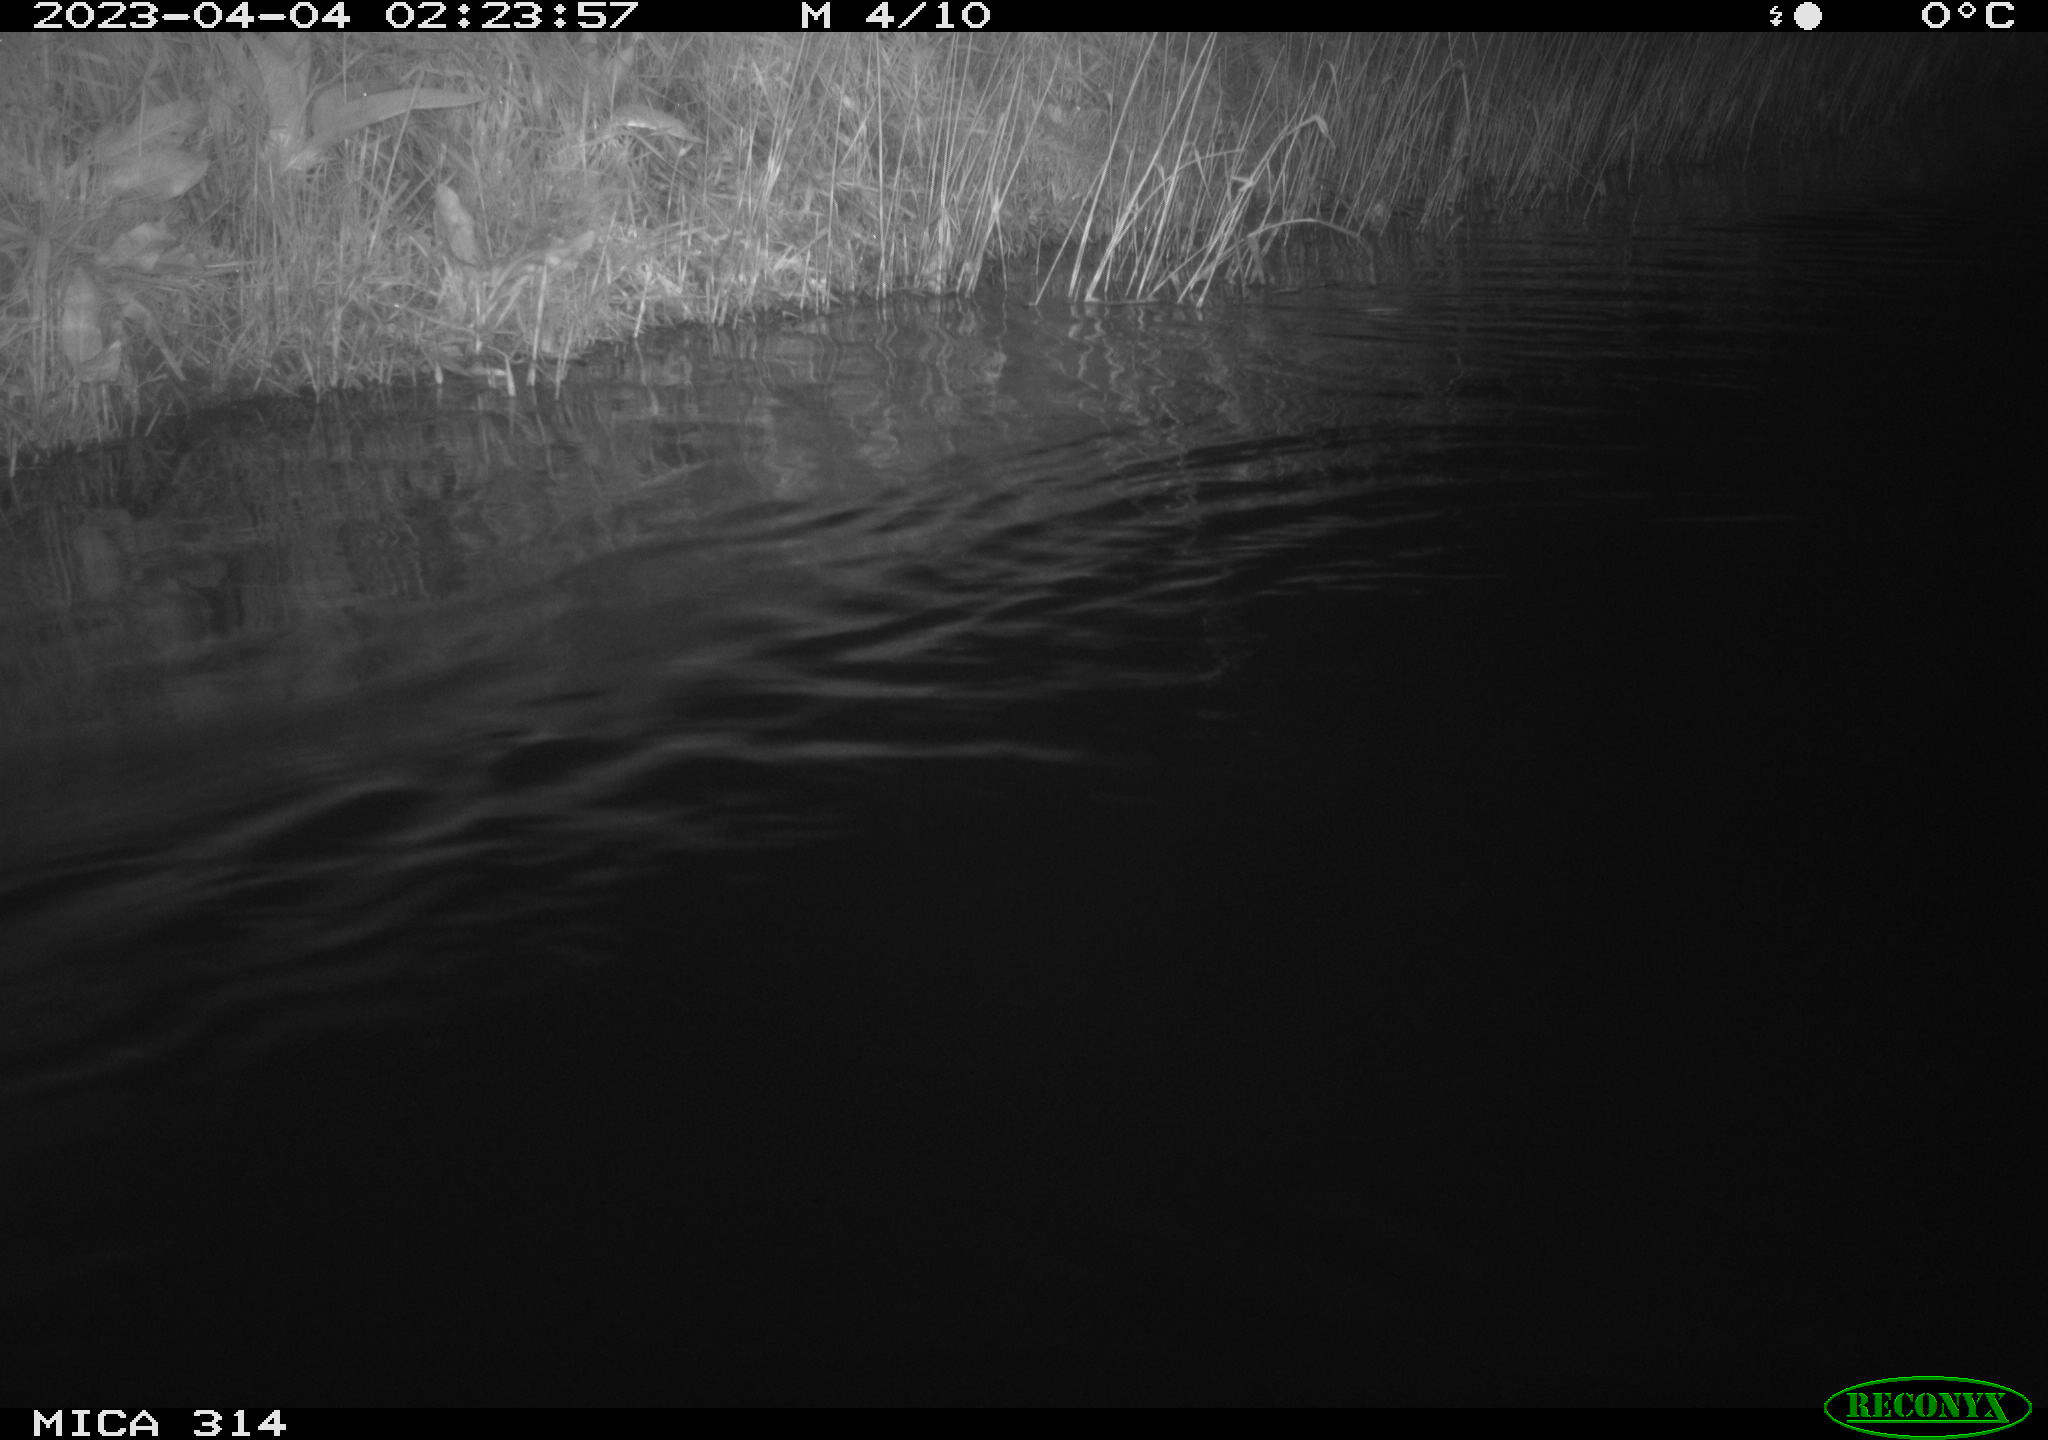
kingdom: Animalia
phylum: Chordata
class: Aves
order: Anseriformes
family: Anatidae
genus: Anas
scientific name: Anas
